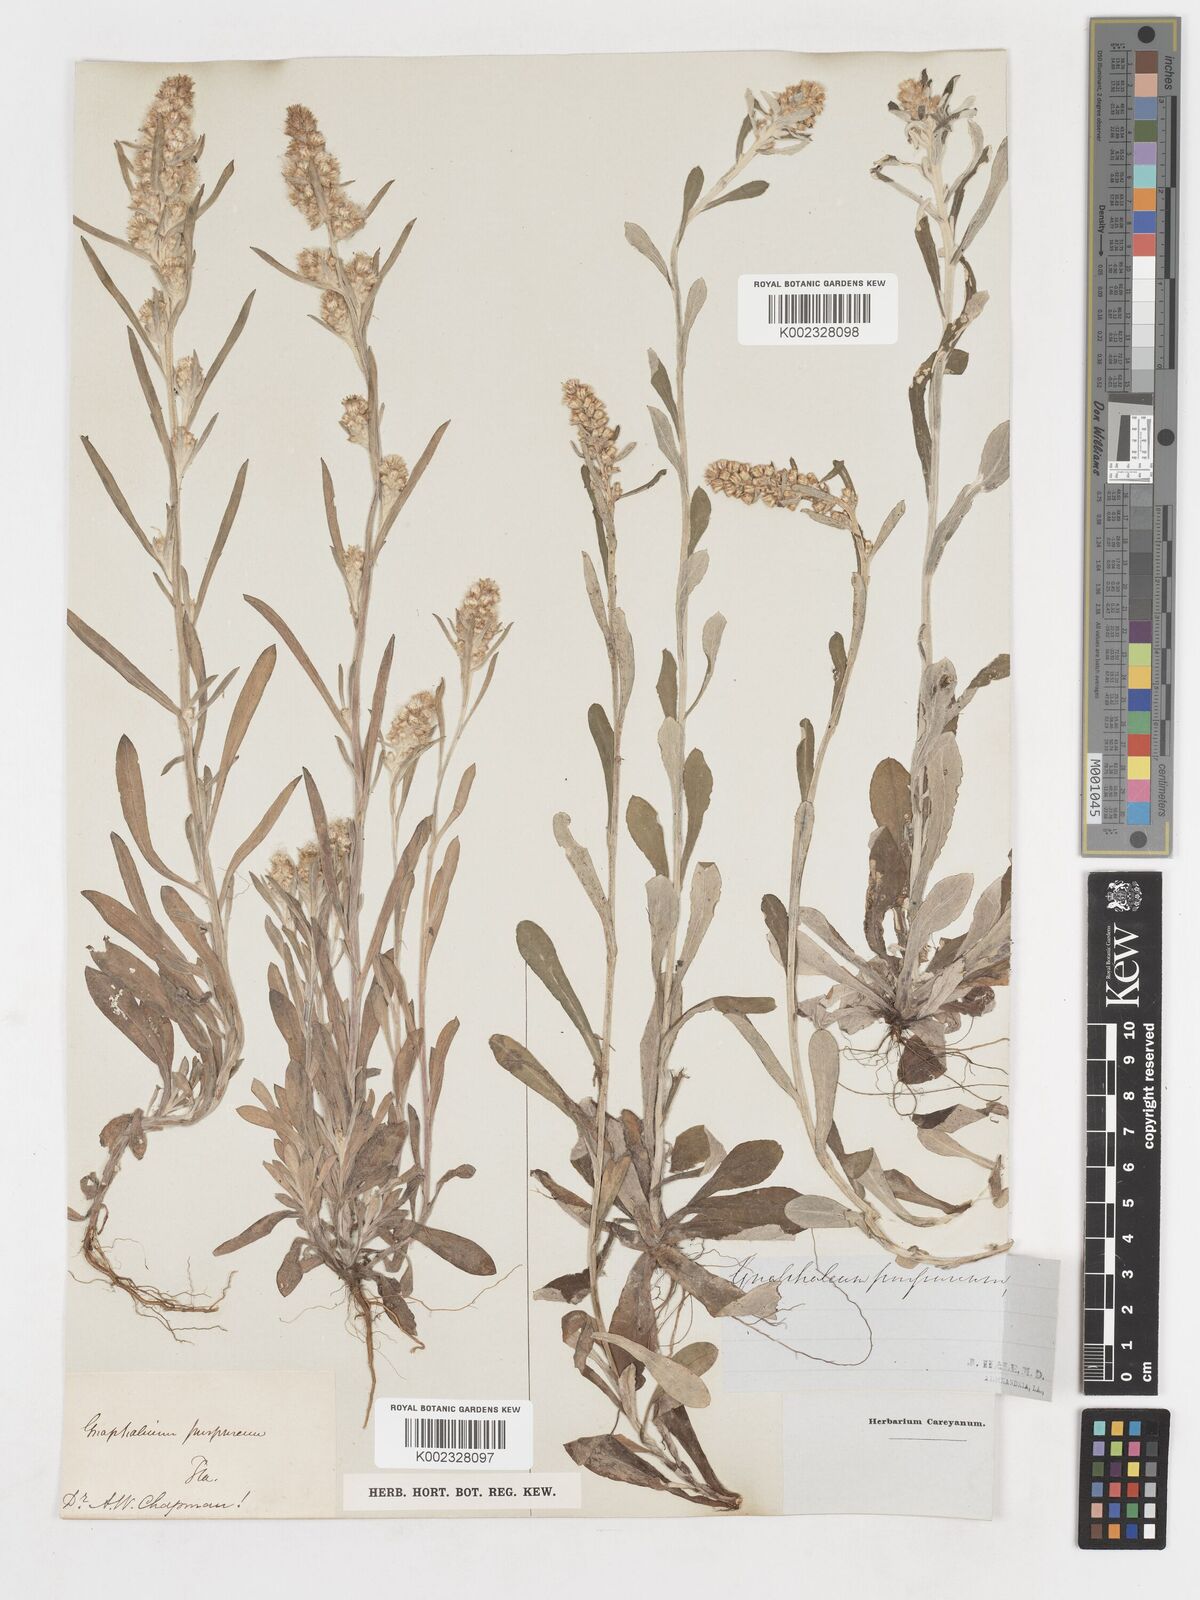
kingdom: Plantae
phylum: Tracheophyta
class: Magnoliopsida
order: Asterales
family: Asteraceae
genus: Gamochaeta
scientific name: Gamochaeta purpurea
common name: Purple cudweed
